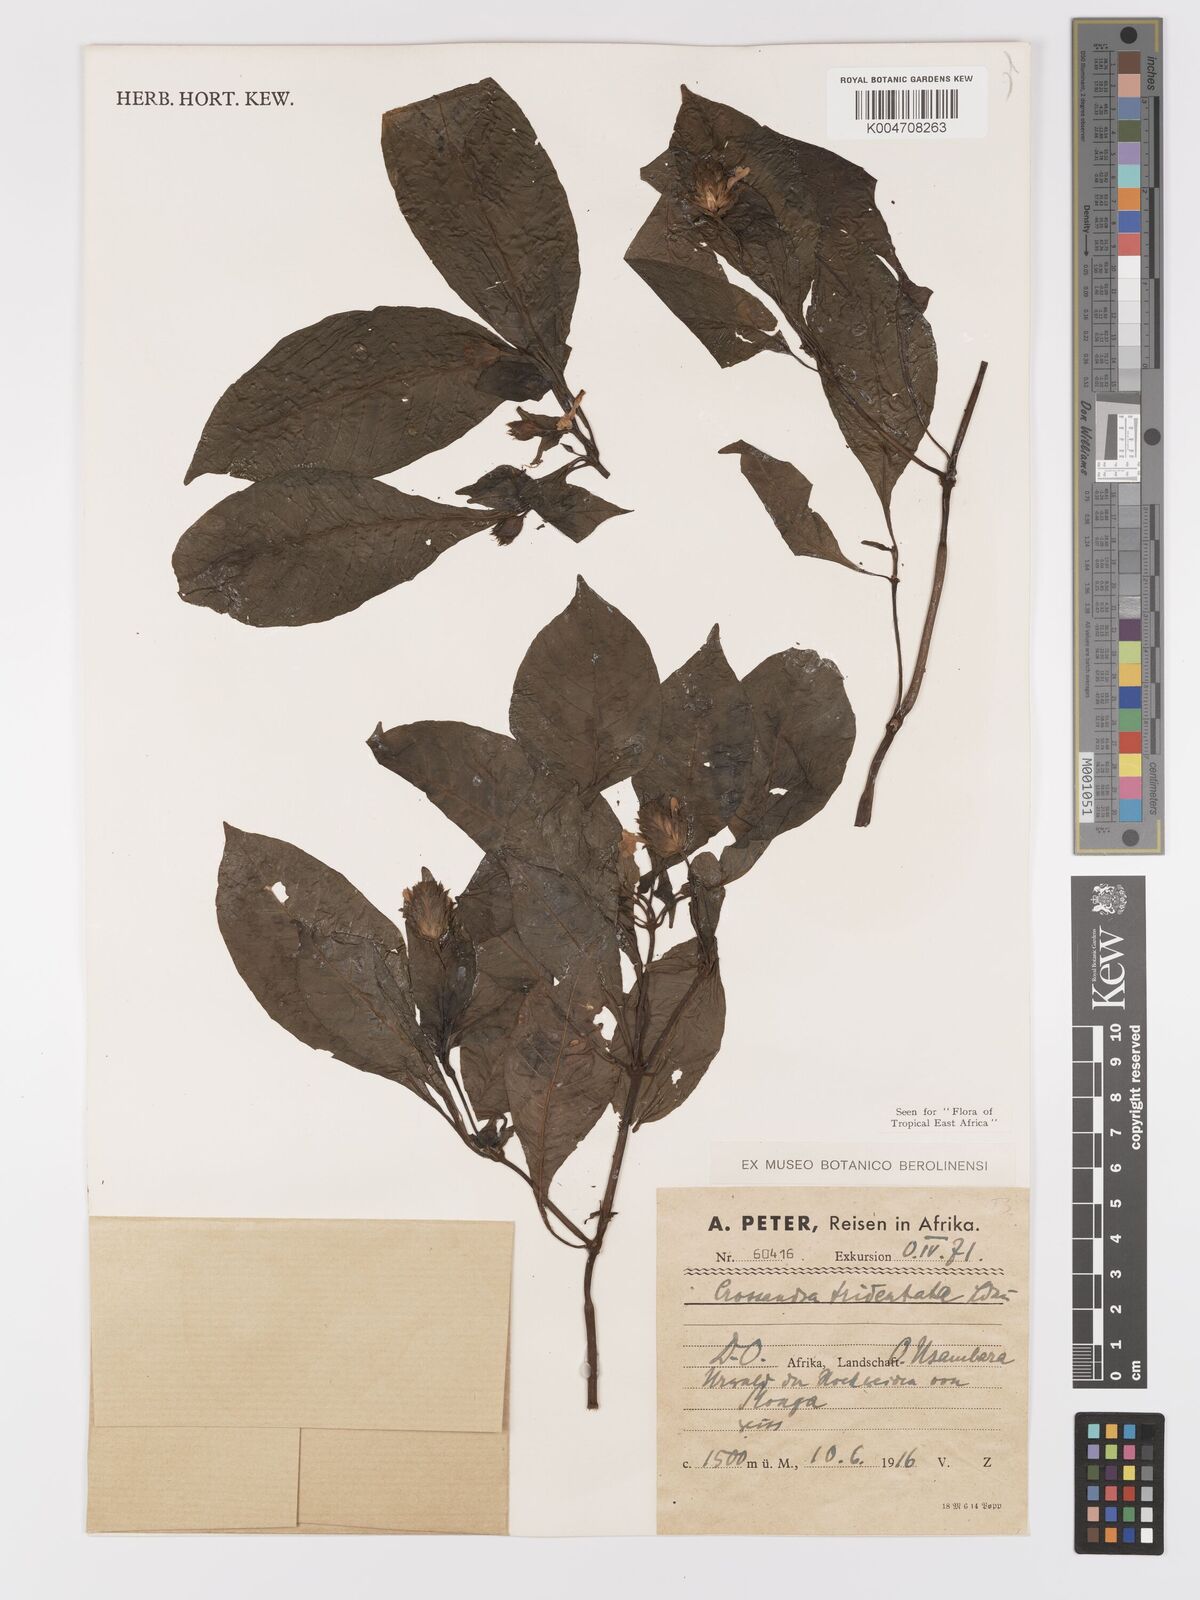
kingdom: Plantae
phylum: Tracheophyta
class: Magnoliopsida
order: Lamiales
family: Acanthaceae
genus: Crossandra
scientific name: Crossandra tridentata
